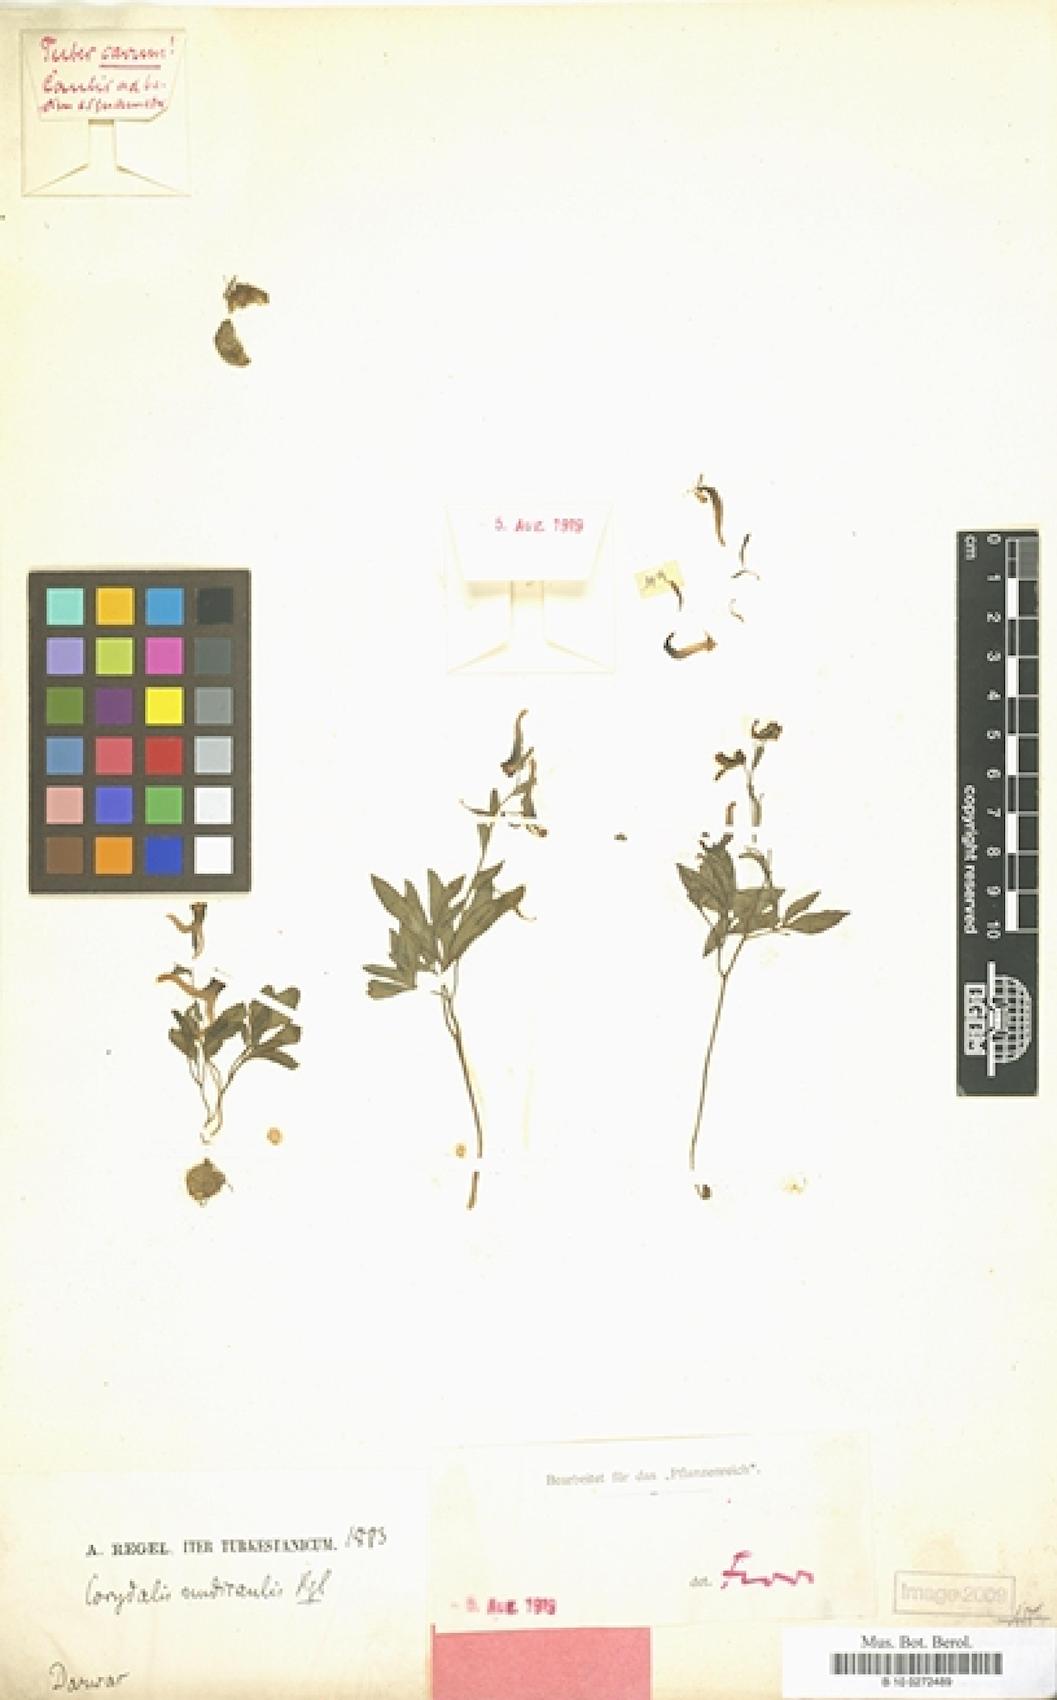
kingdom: Plantae
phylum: Tracheophyta
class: Magnoliopsida
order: Ranunculales
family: Papaveraceae
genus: Corydalis
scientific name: Corydalis nudicaulis
